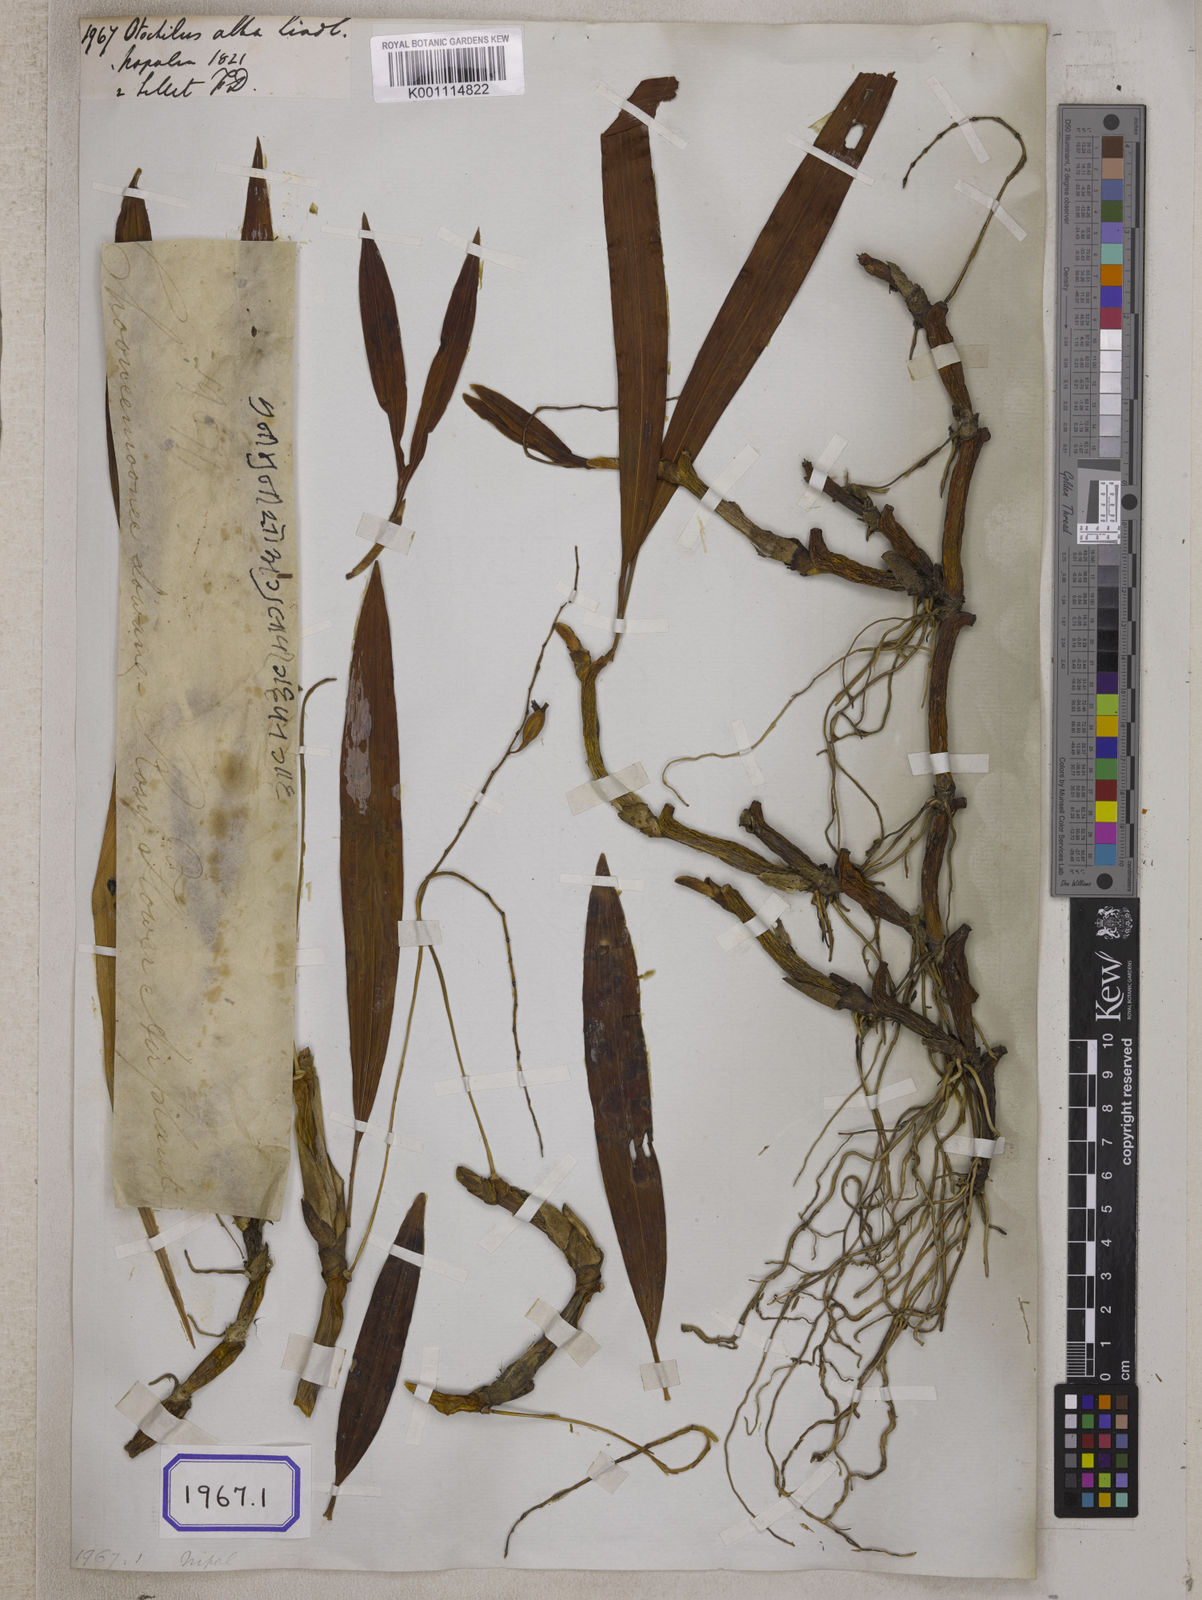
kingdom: Plantae
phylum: Tracheophyta
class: Liliopsida
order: Asparagales
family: Orchidaceae
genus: Coelogyne
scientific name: Coelogyne alba
